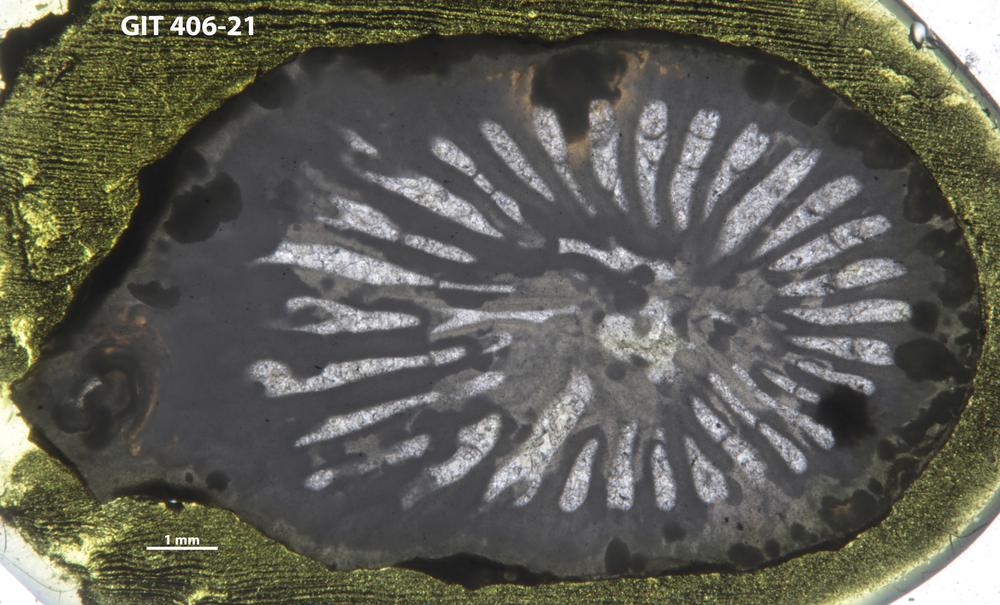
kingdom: Animalia
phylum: Cnidaria
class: Anthozoa
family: Streptelasmatidae
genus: Streptelasma
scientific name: Streptelasma
